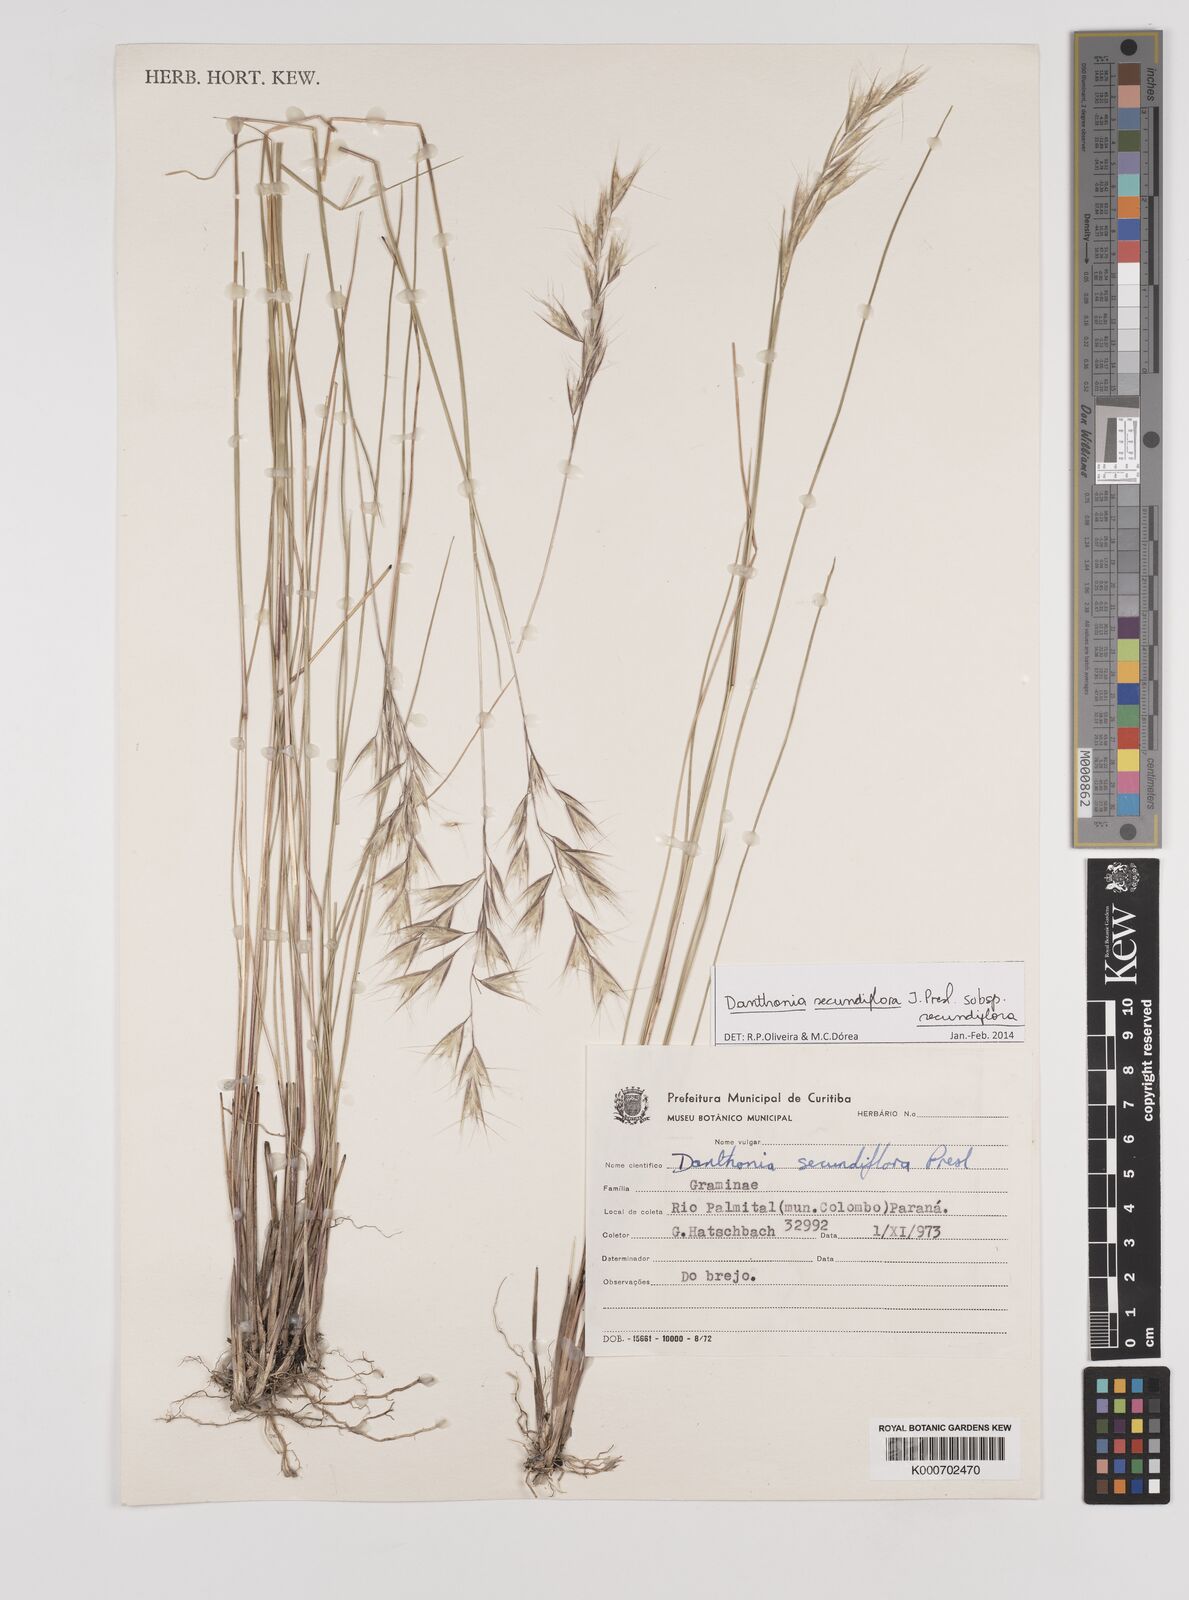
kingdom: Plantae
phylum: Tracheophyta
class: Liliopsida
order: Poales
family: Poaceae
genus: Danthonia
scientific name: Danthonia secundiflora
